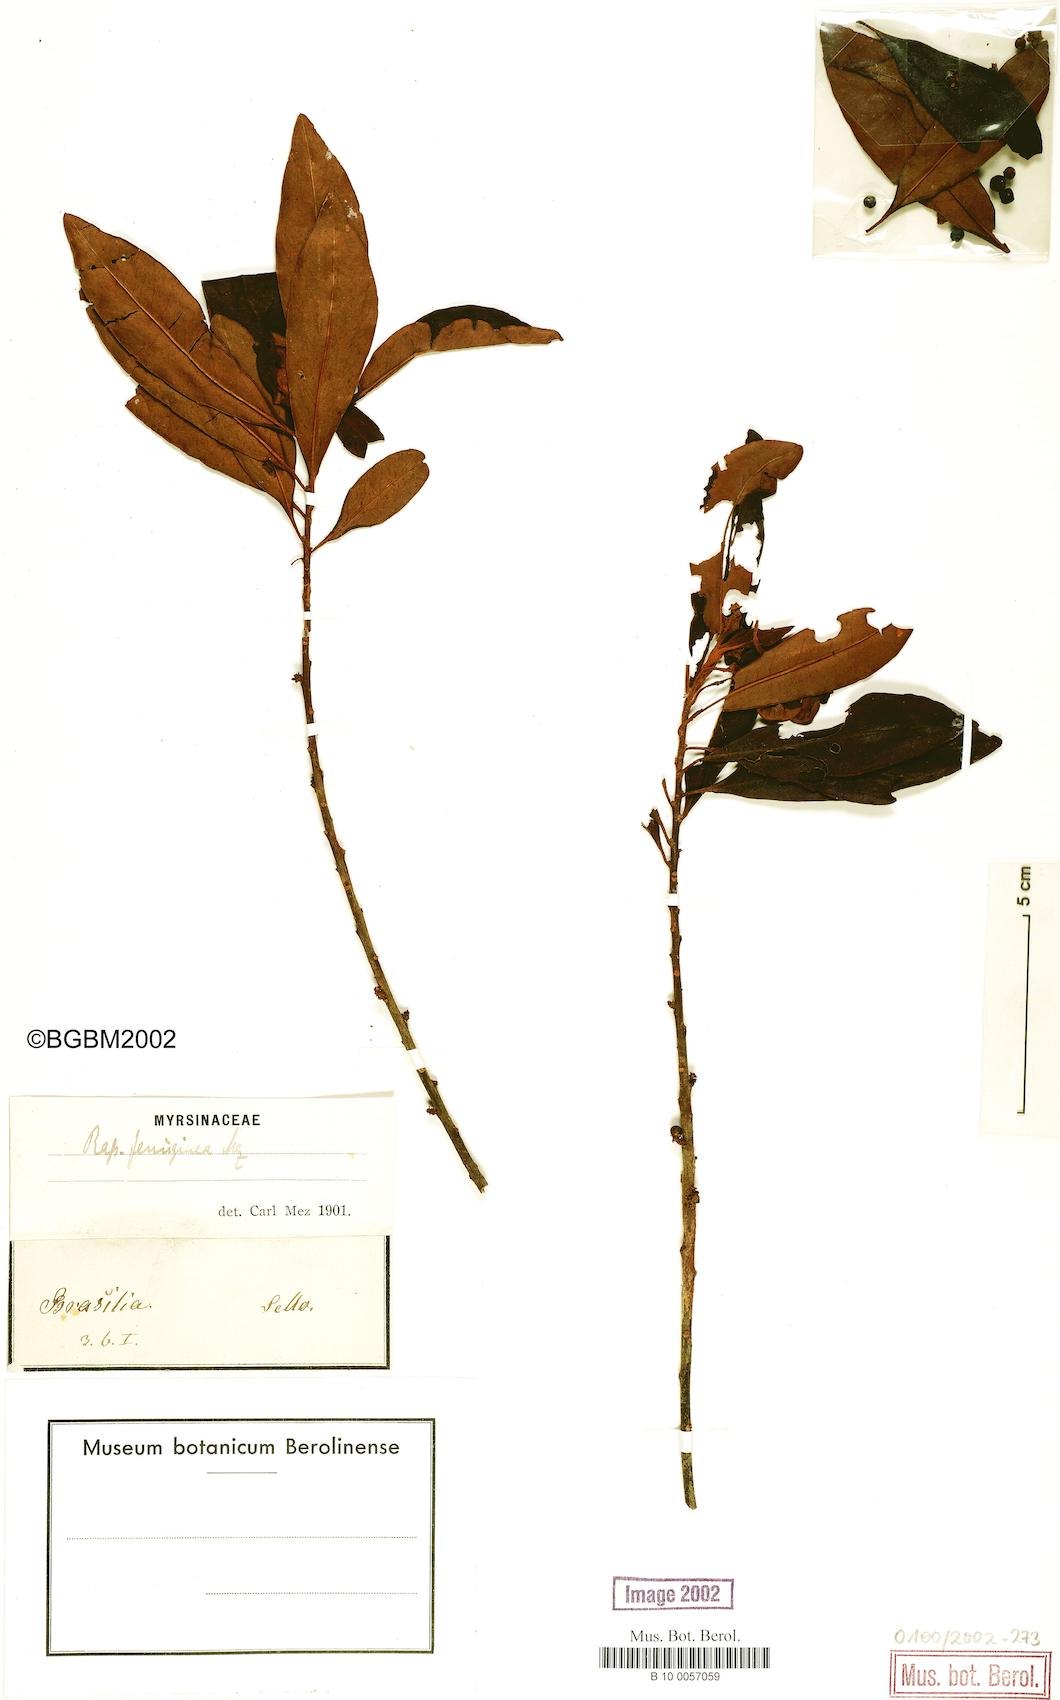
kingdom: Plantae
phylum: Tracheophyta
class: Magnoliopsida
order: Ericales
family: Primulaceae
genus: Myrsine
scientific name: Myrsine coriacea
